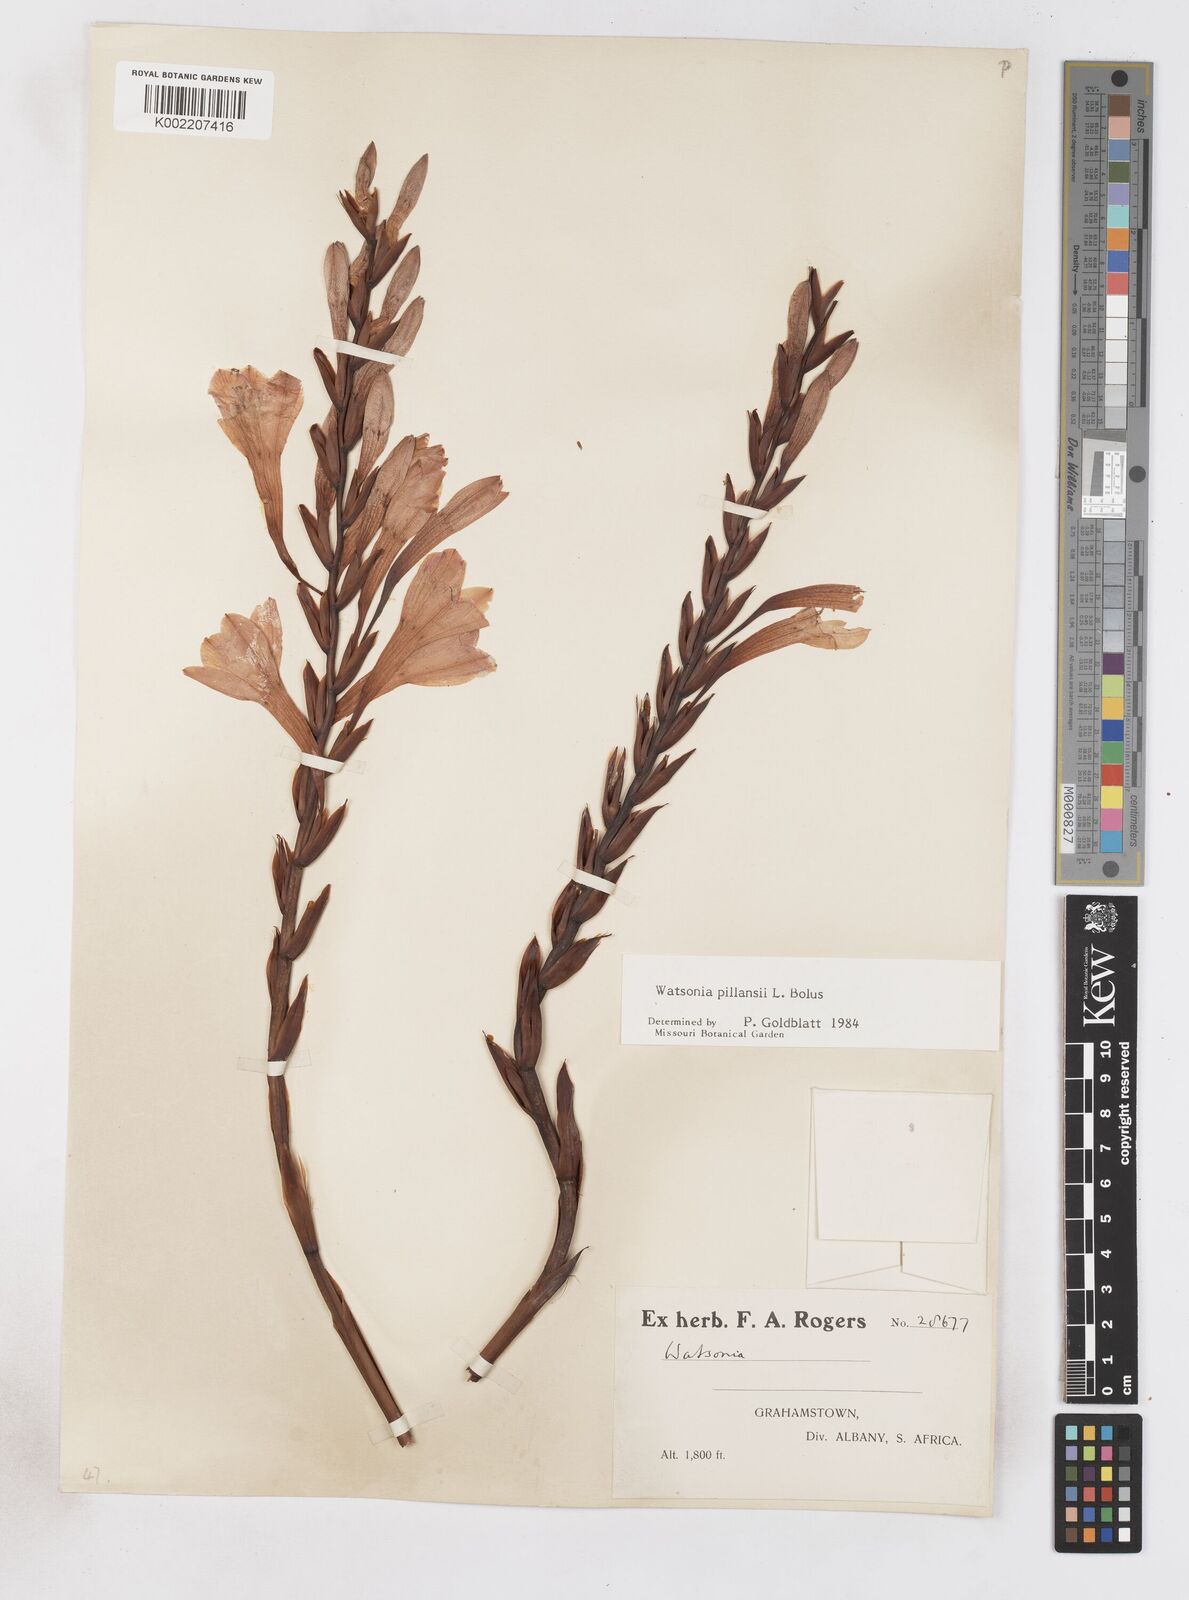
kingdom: Plantae
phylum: Tracheophyta
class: Liliopsida
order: Asparagales
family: Iridaceae
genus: Watsonia
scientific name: Watsonia pillansii
